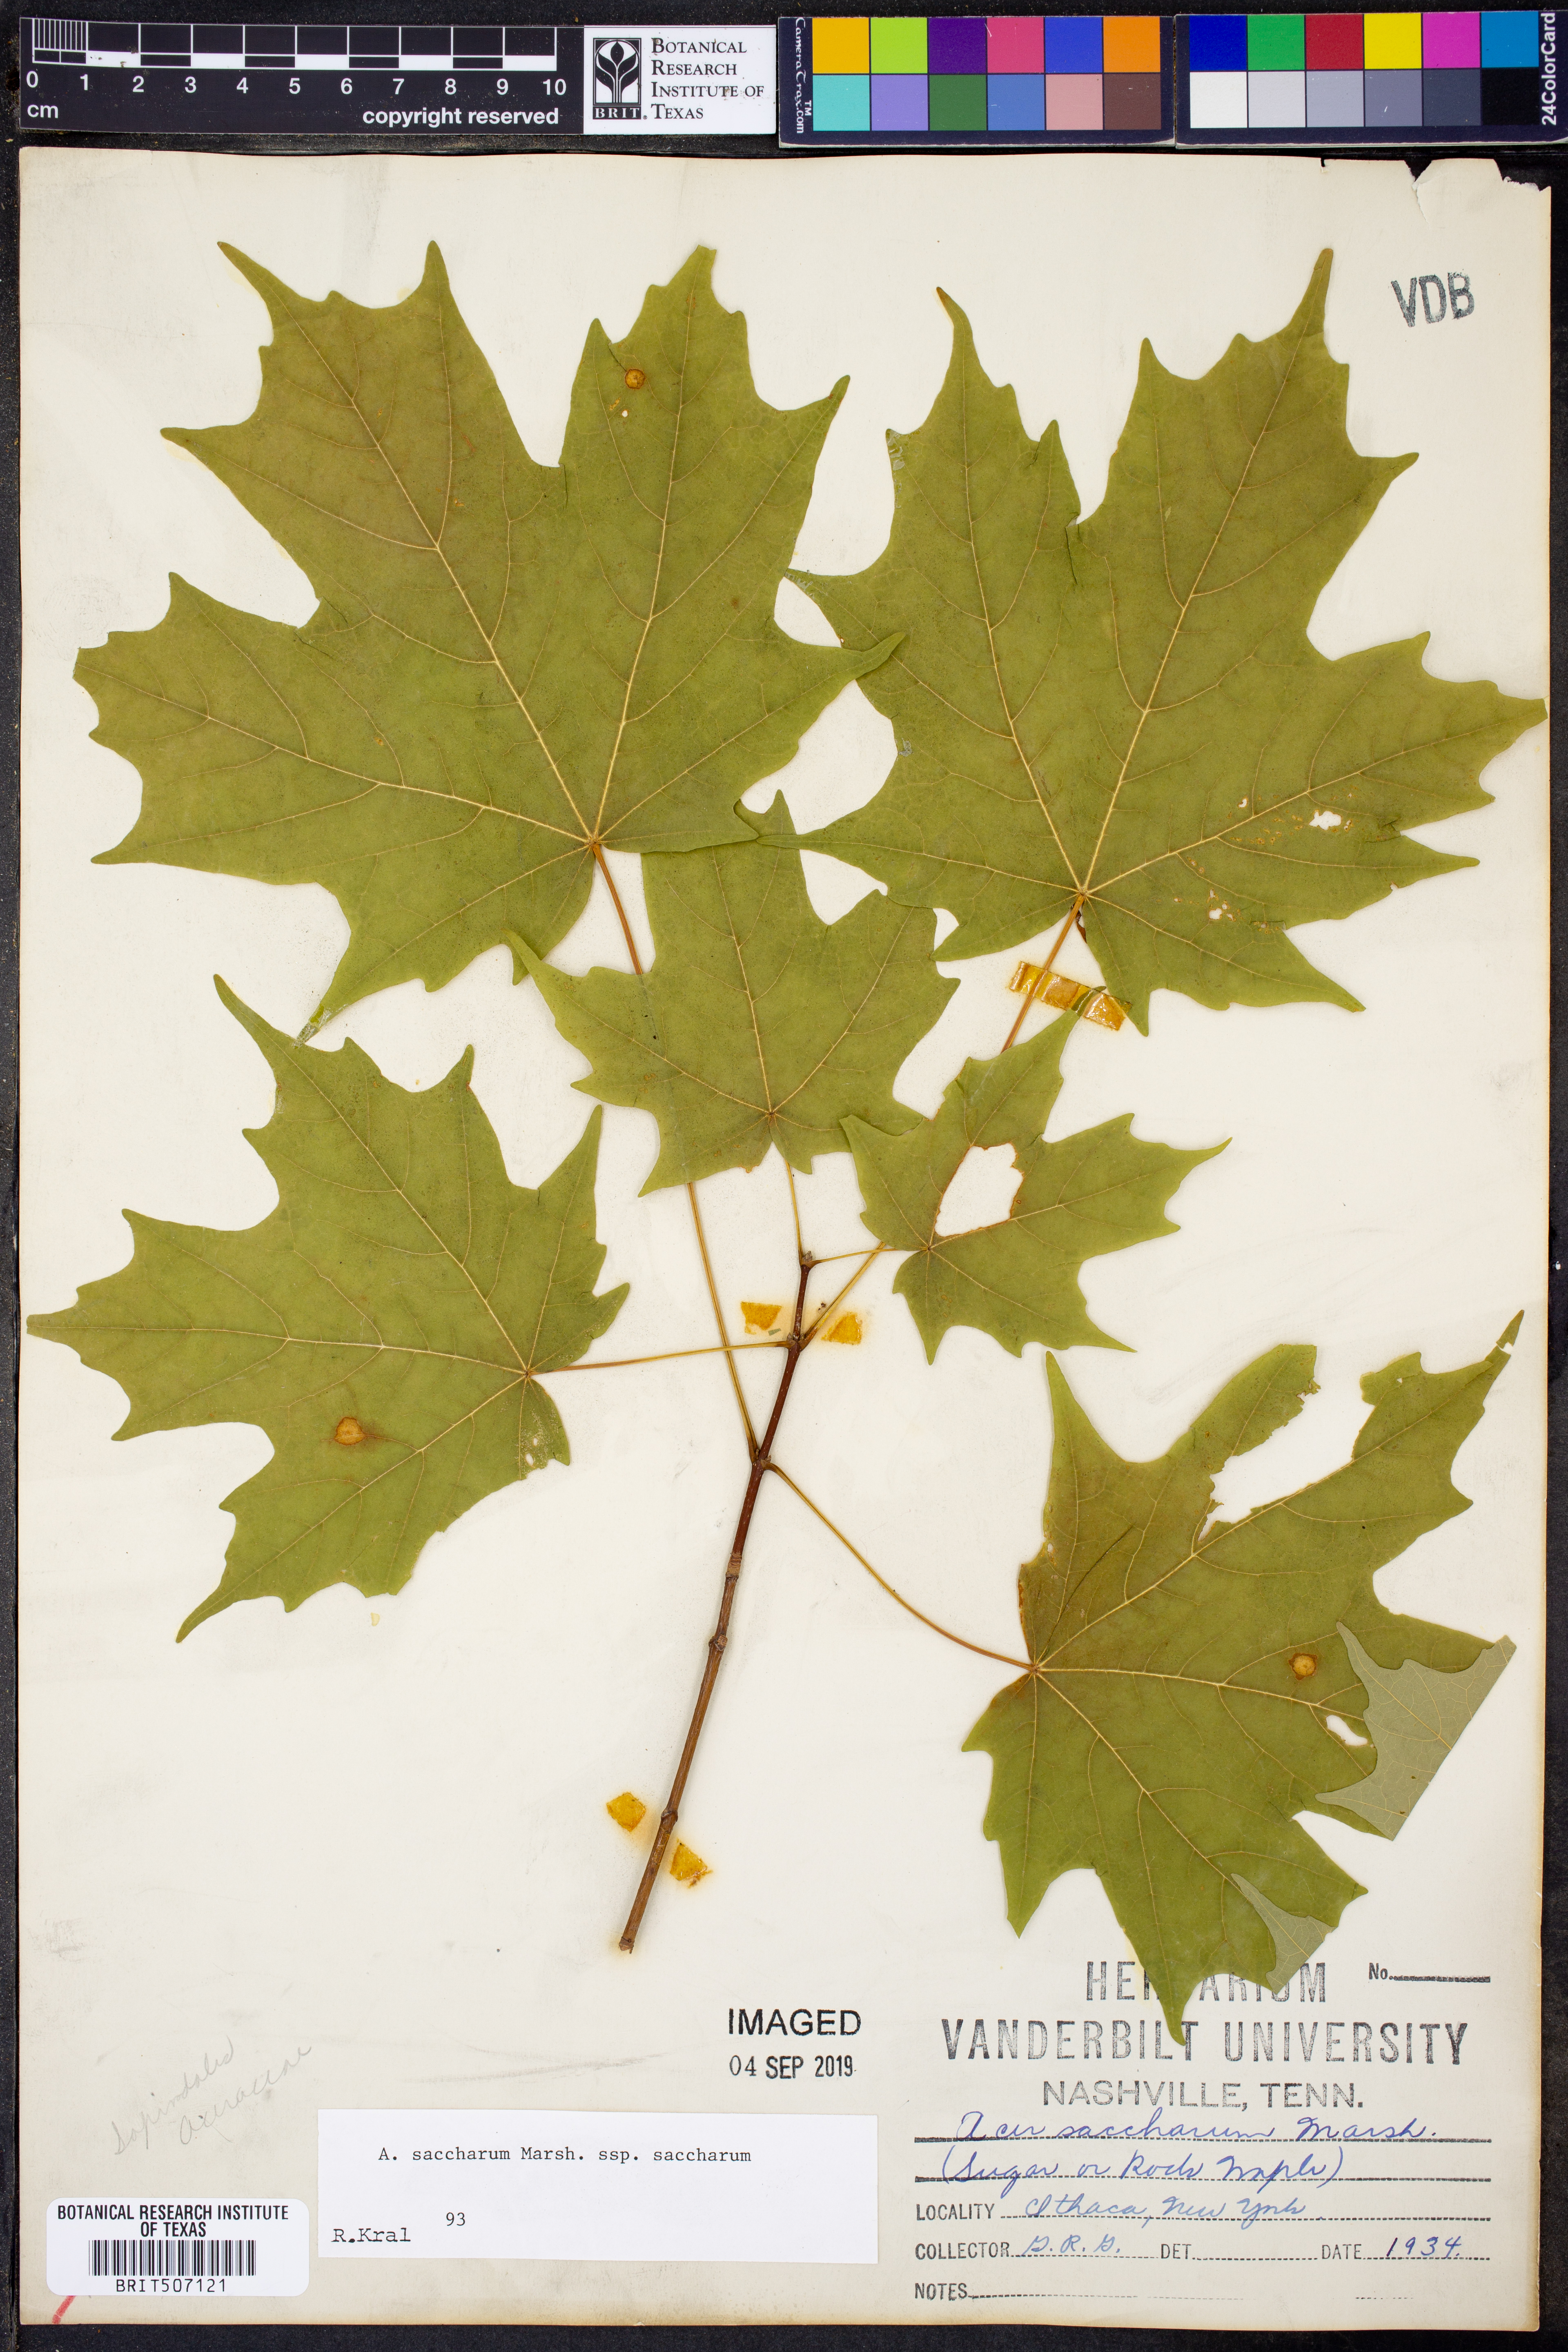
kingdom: Plantae
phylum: Tracheophyta
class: Magnoliopsida
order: Sapindales
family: Sapindaceae
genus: Acer
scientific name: Acer saccharum
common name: Sugar maple
